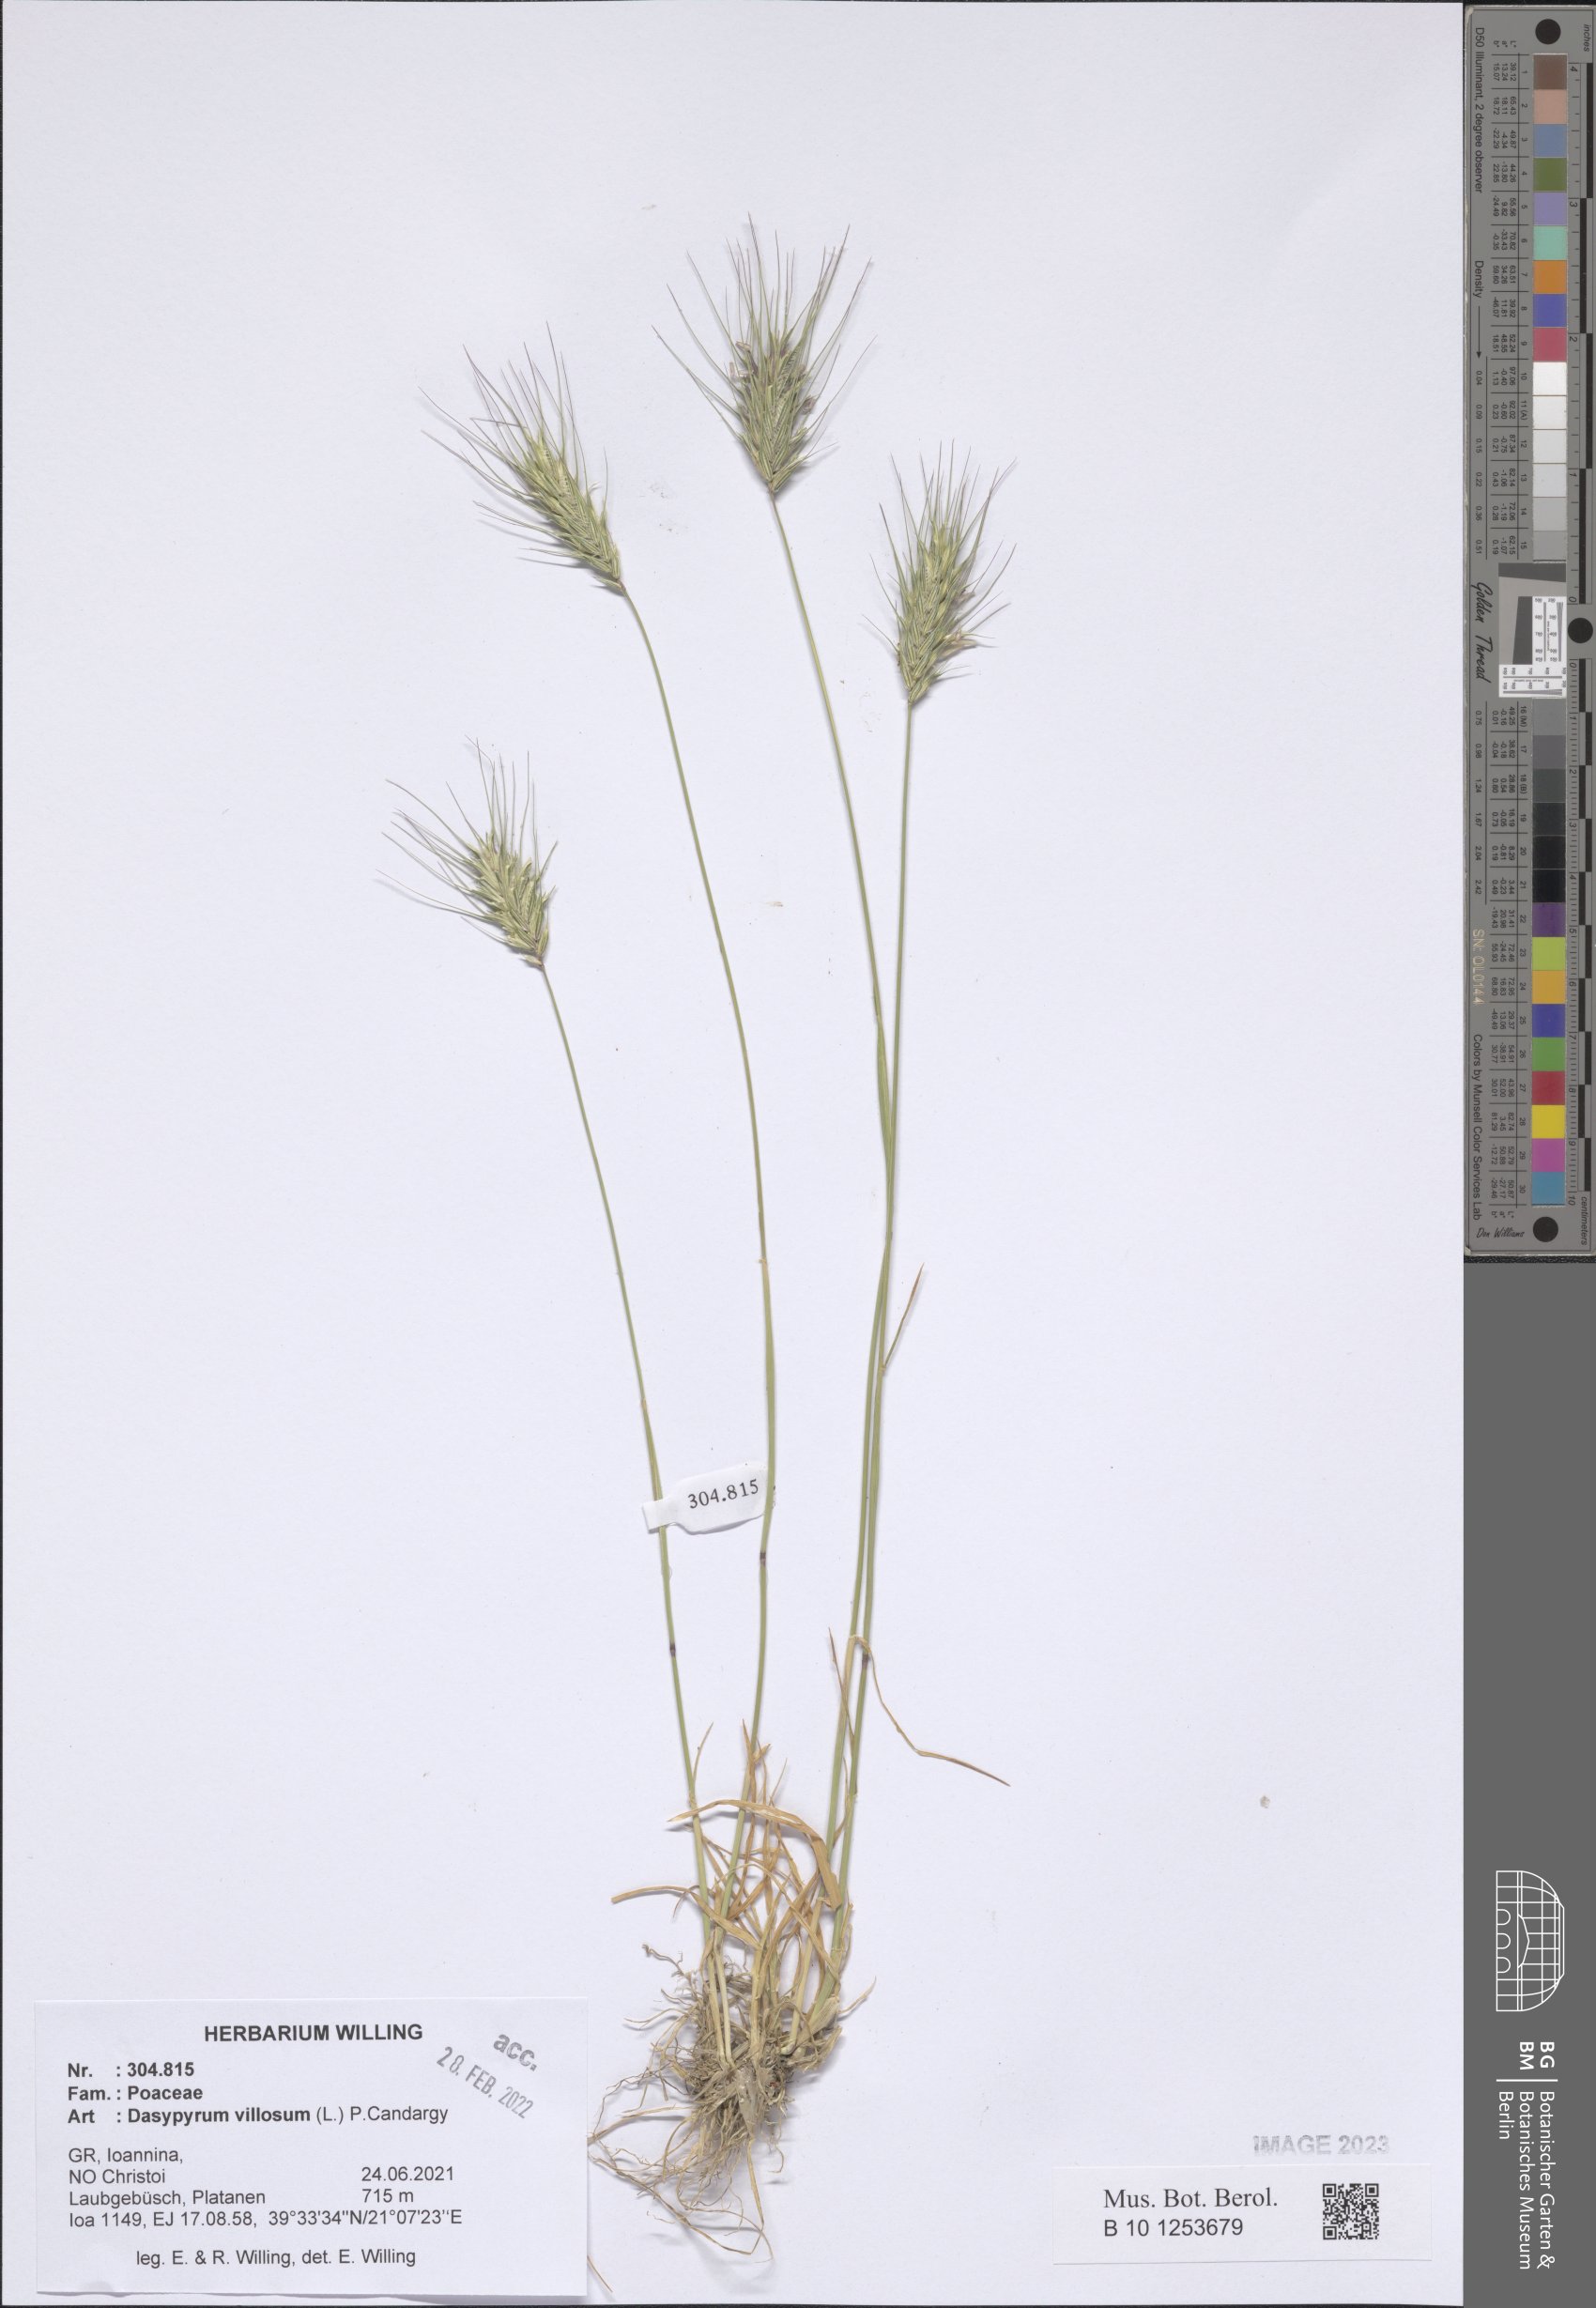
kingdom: Plantae
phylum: Tracheophyta
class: Liliopsida
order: Poales
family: Poaceae
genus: Dasypyrum
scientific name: Dasypyrum villosum
